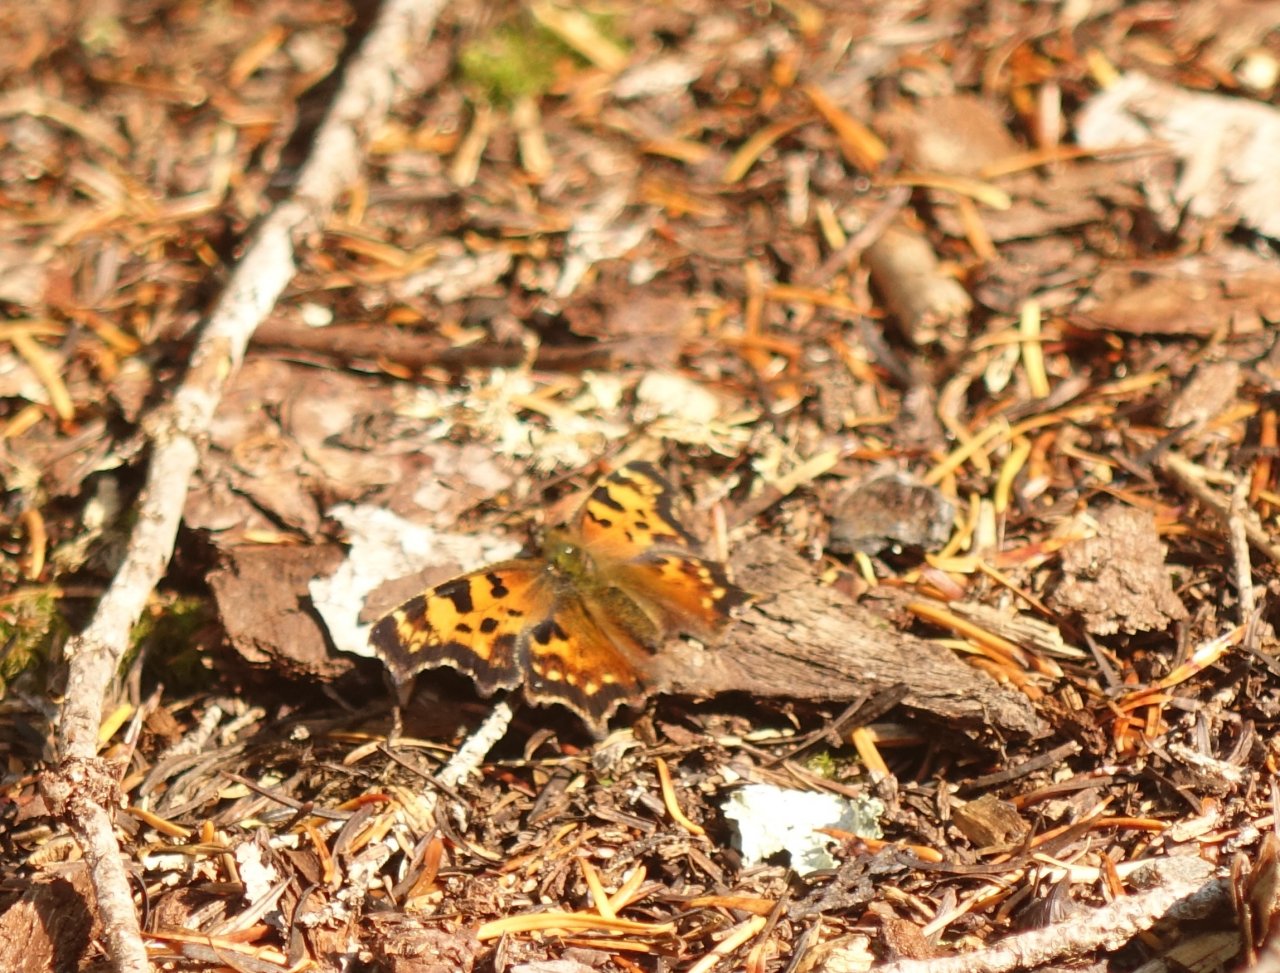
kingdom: Animalia
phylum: Arthropoda
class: Insecta
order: Lepidoptera
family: Nymphalidae
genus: Polygonia
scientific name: Polygonia faunus
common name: Green Comma
